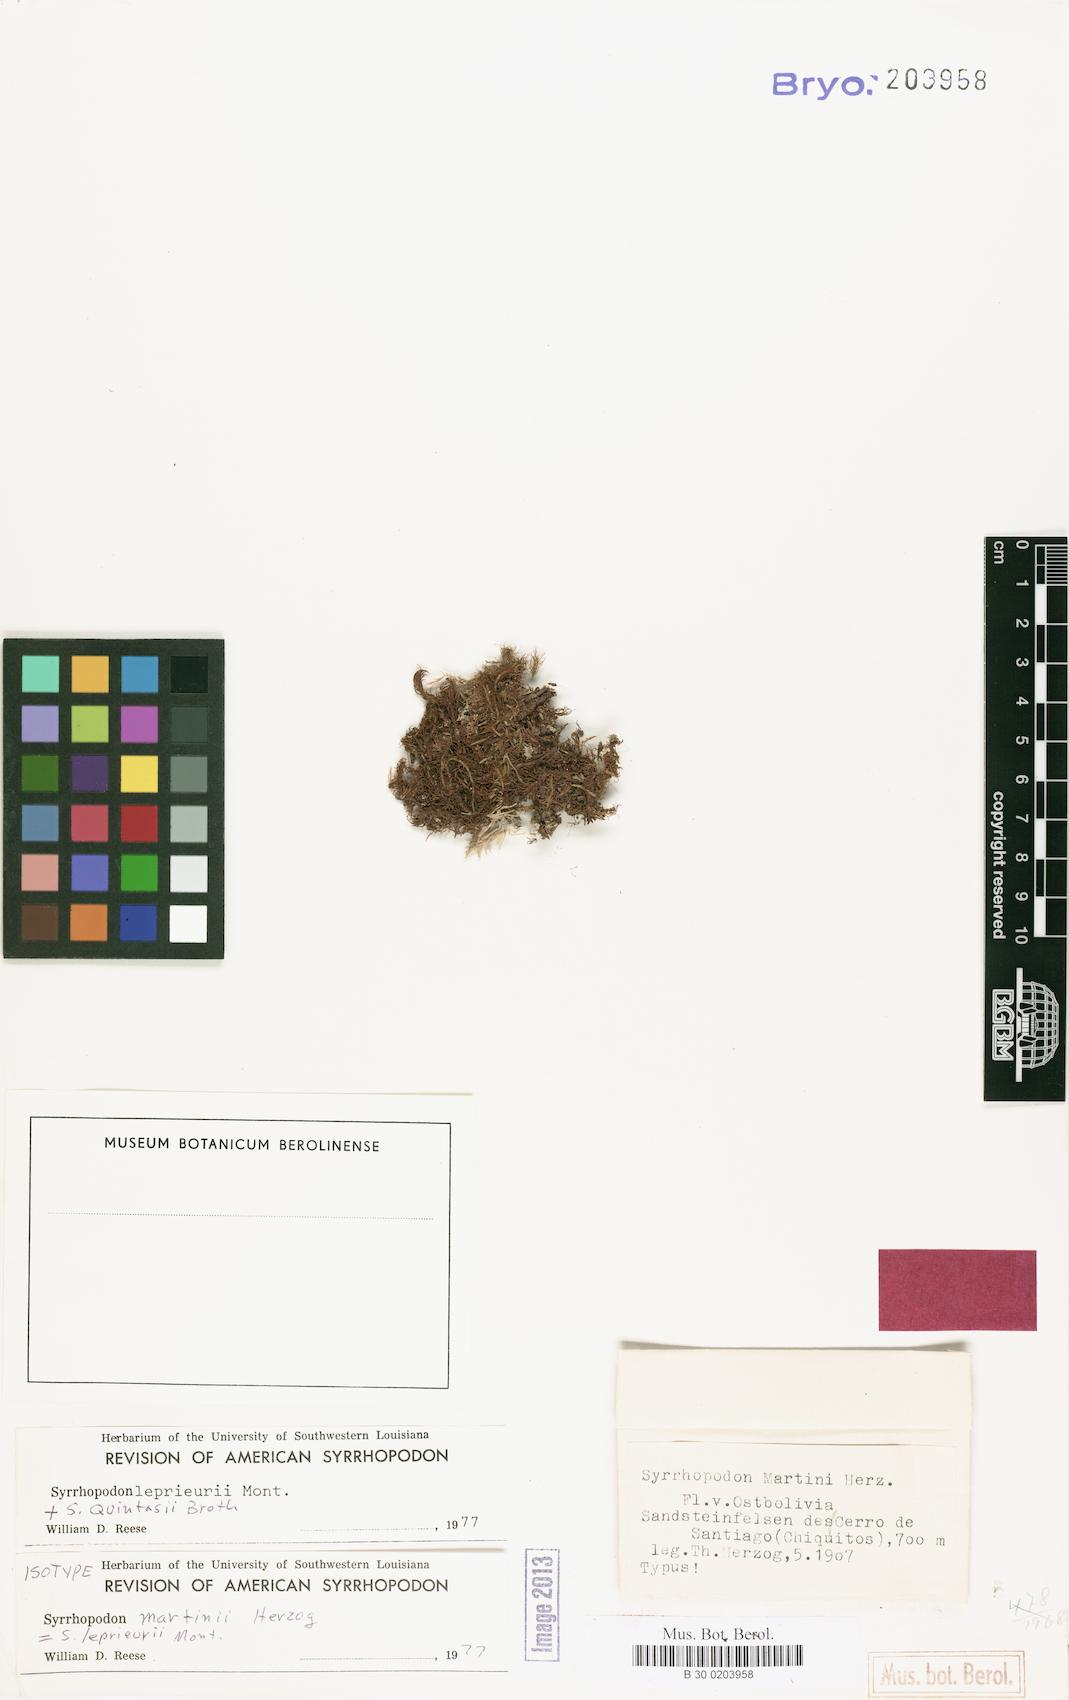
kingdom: Plantae
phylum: Bryophyta
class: Bryopsida
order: Dicranales
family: Calymperaceae
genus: Syrrhopodon
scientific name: Syrrhopodon leprieurii
